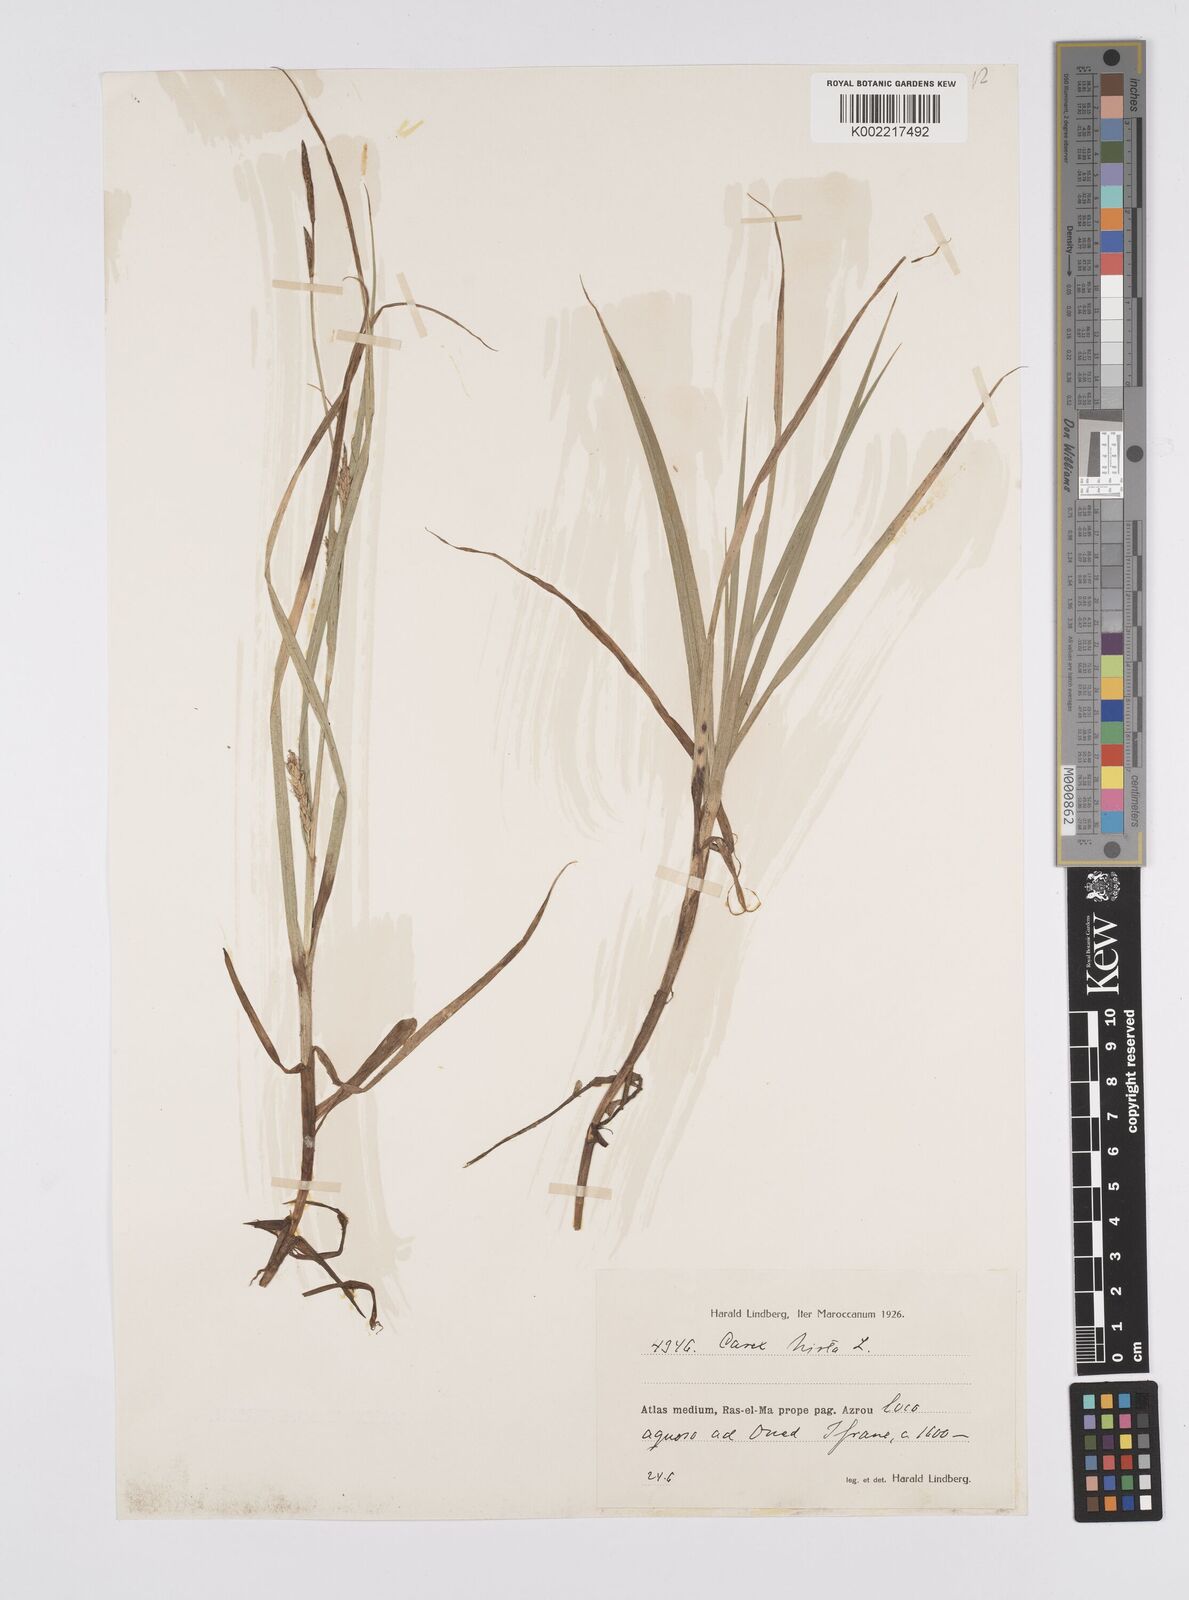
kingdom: Plantae
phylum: Tracheophyta
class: Liliopsida
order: Poales
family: Cyperaceae
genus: Carex
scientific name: Carex hirta
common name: Hairy sedge
